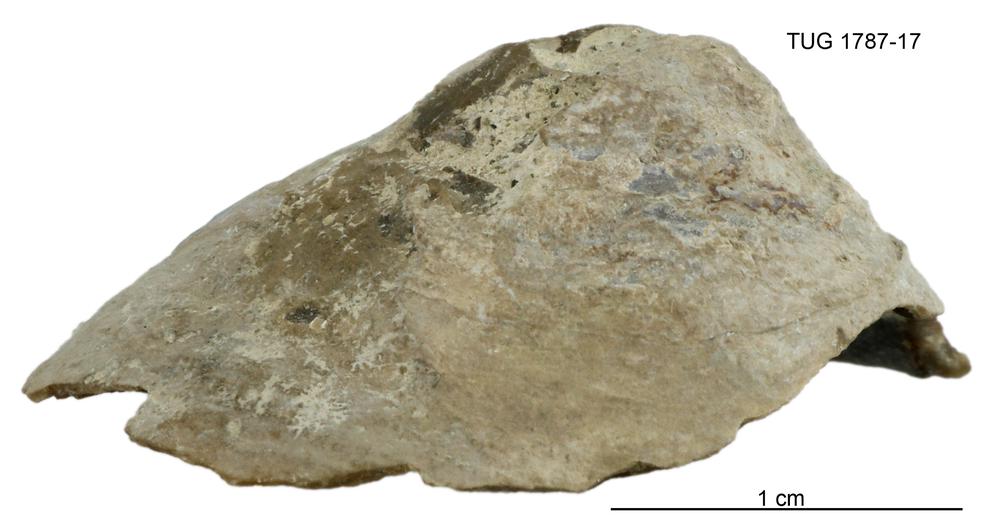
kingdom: Animalia
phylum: Brachiopoda
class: Lingulata
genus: Pseudometoptoma
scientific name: Pseudometoptoma
